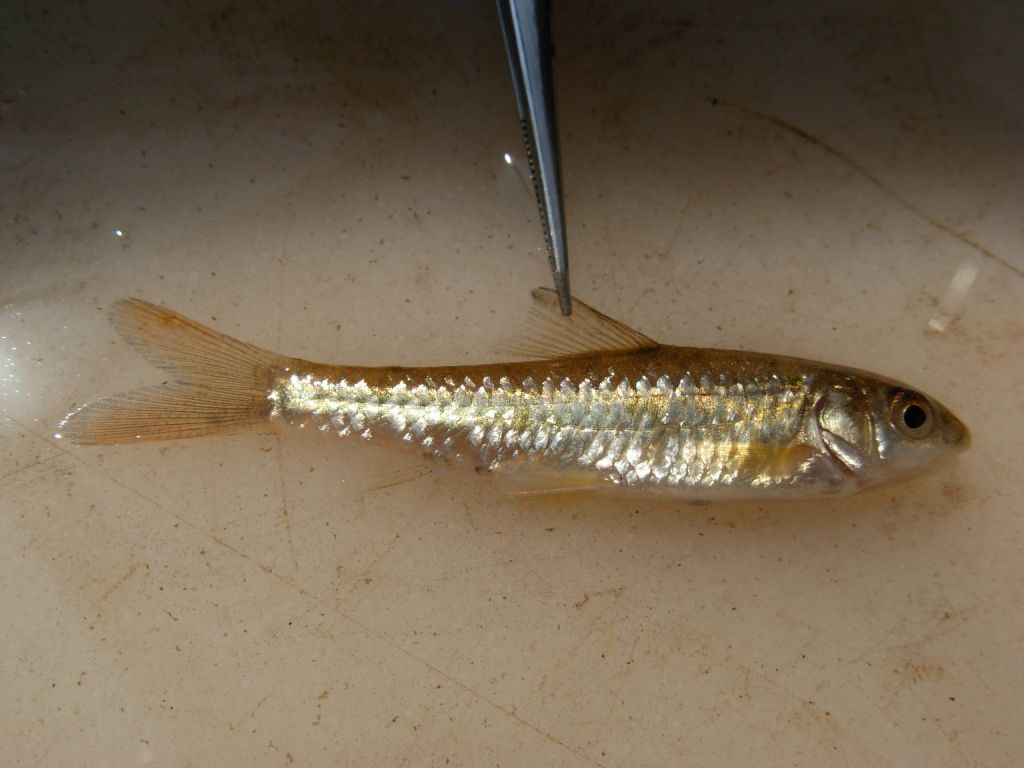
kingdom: Animalia
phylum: Chordata
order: Cypriniformes
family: Cyprinidae
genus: Labeobarbus
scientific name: Labeobarbus marequensis
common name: Largescale yellowfish
